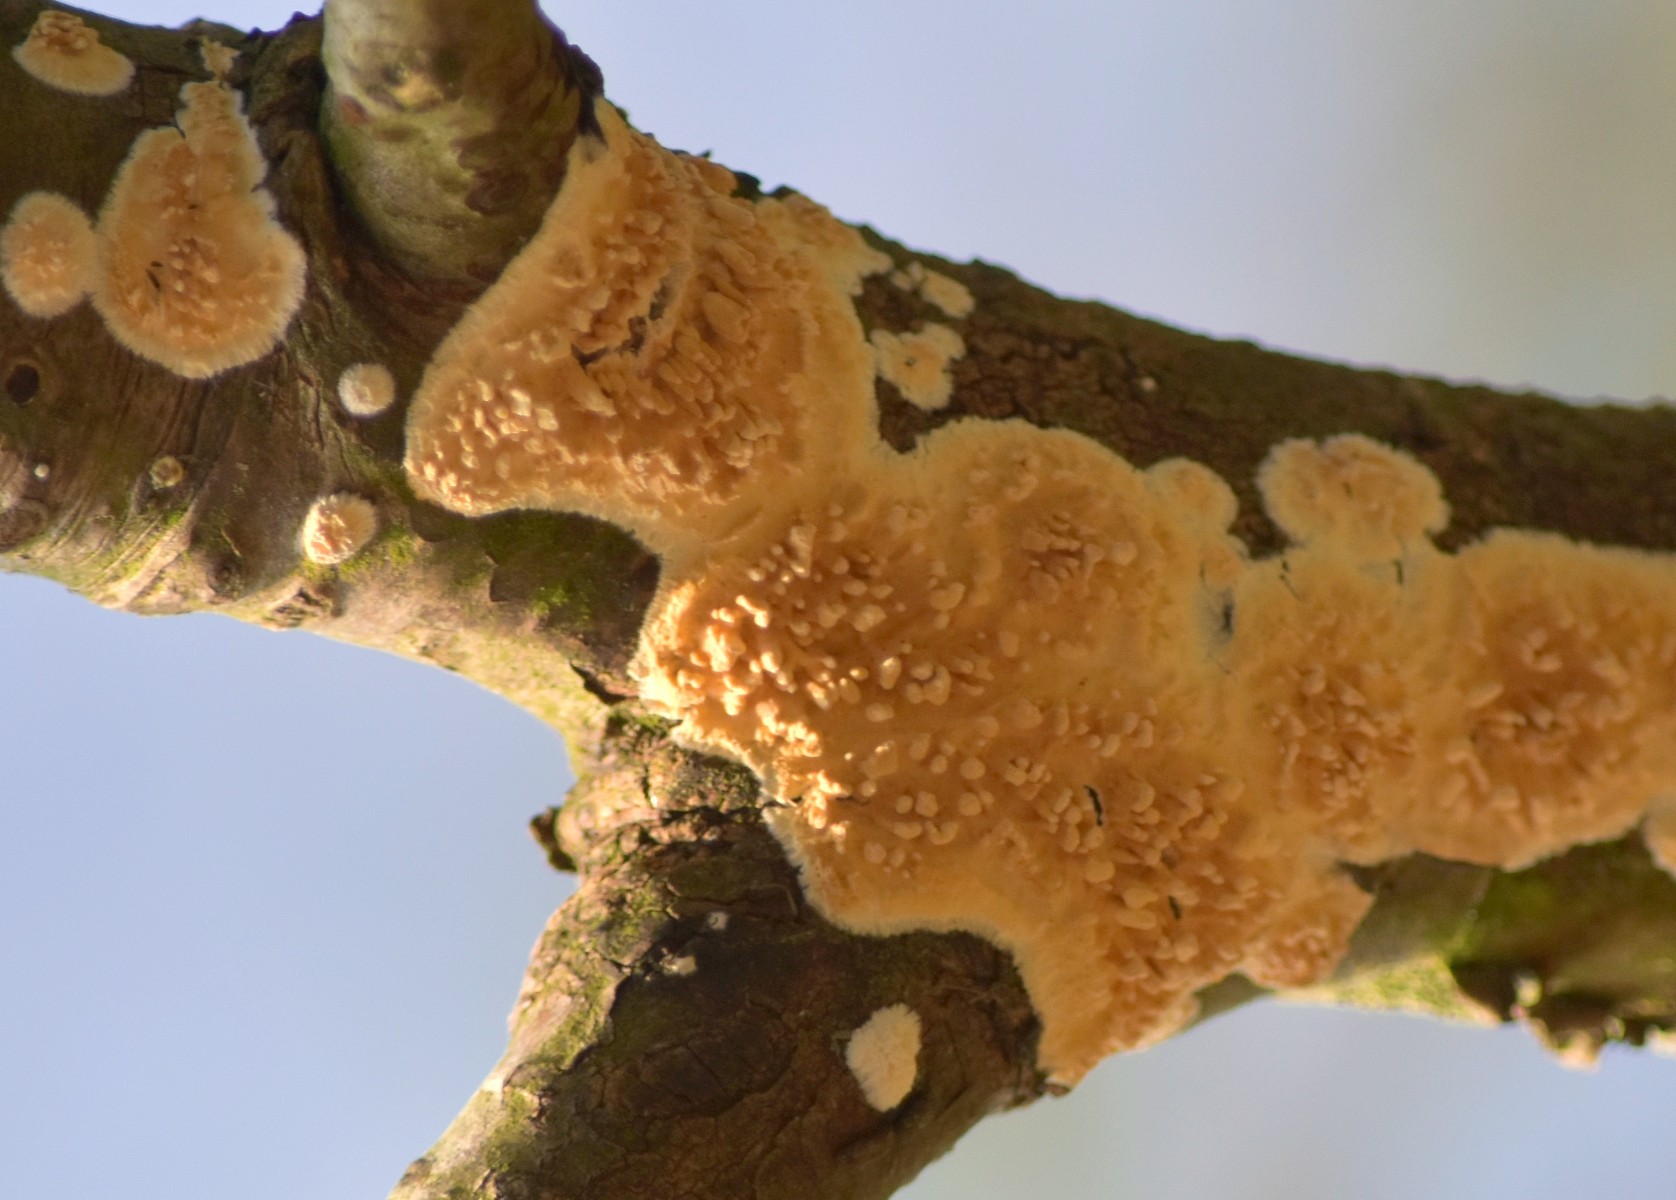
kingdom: Fungi
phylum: Basidiomycota
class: Agaricomycetes
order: Hymenochaetales
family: Schizoporaceae
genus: Xylodon
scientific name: Xylodon radula
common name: grovtandet kalkskind
